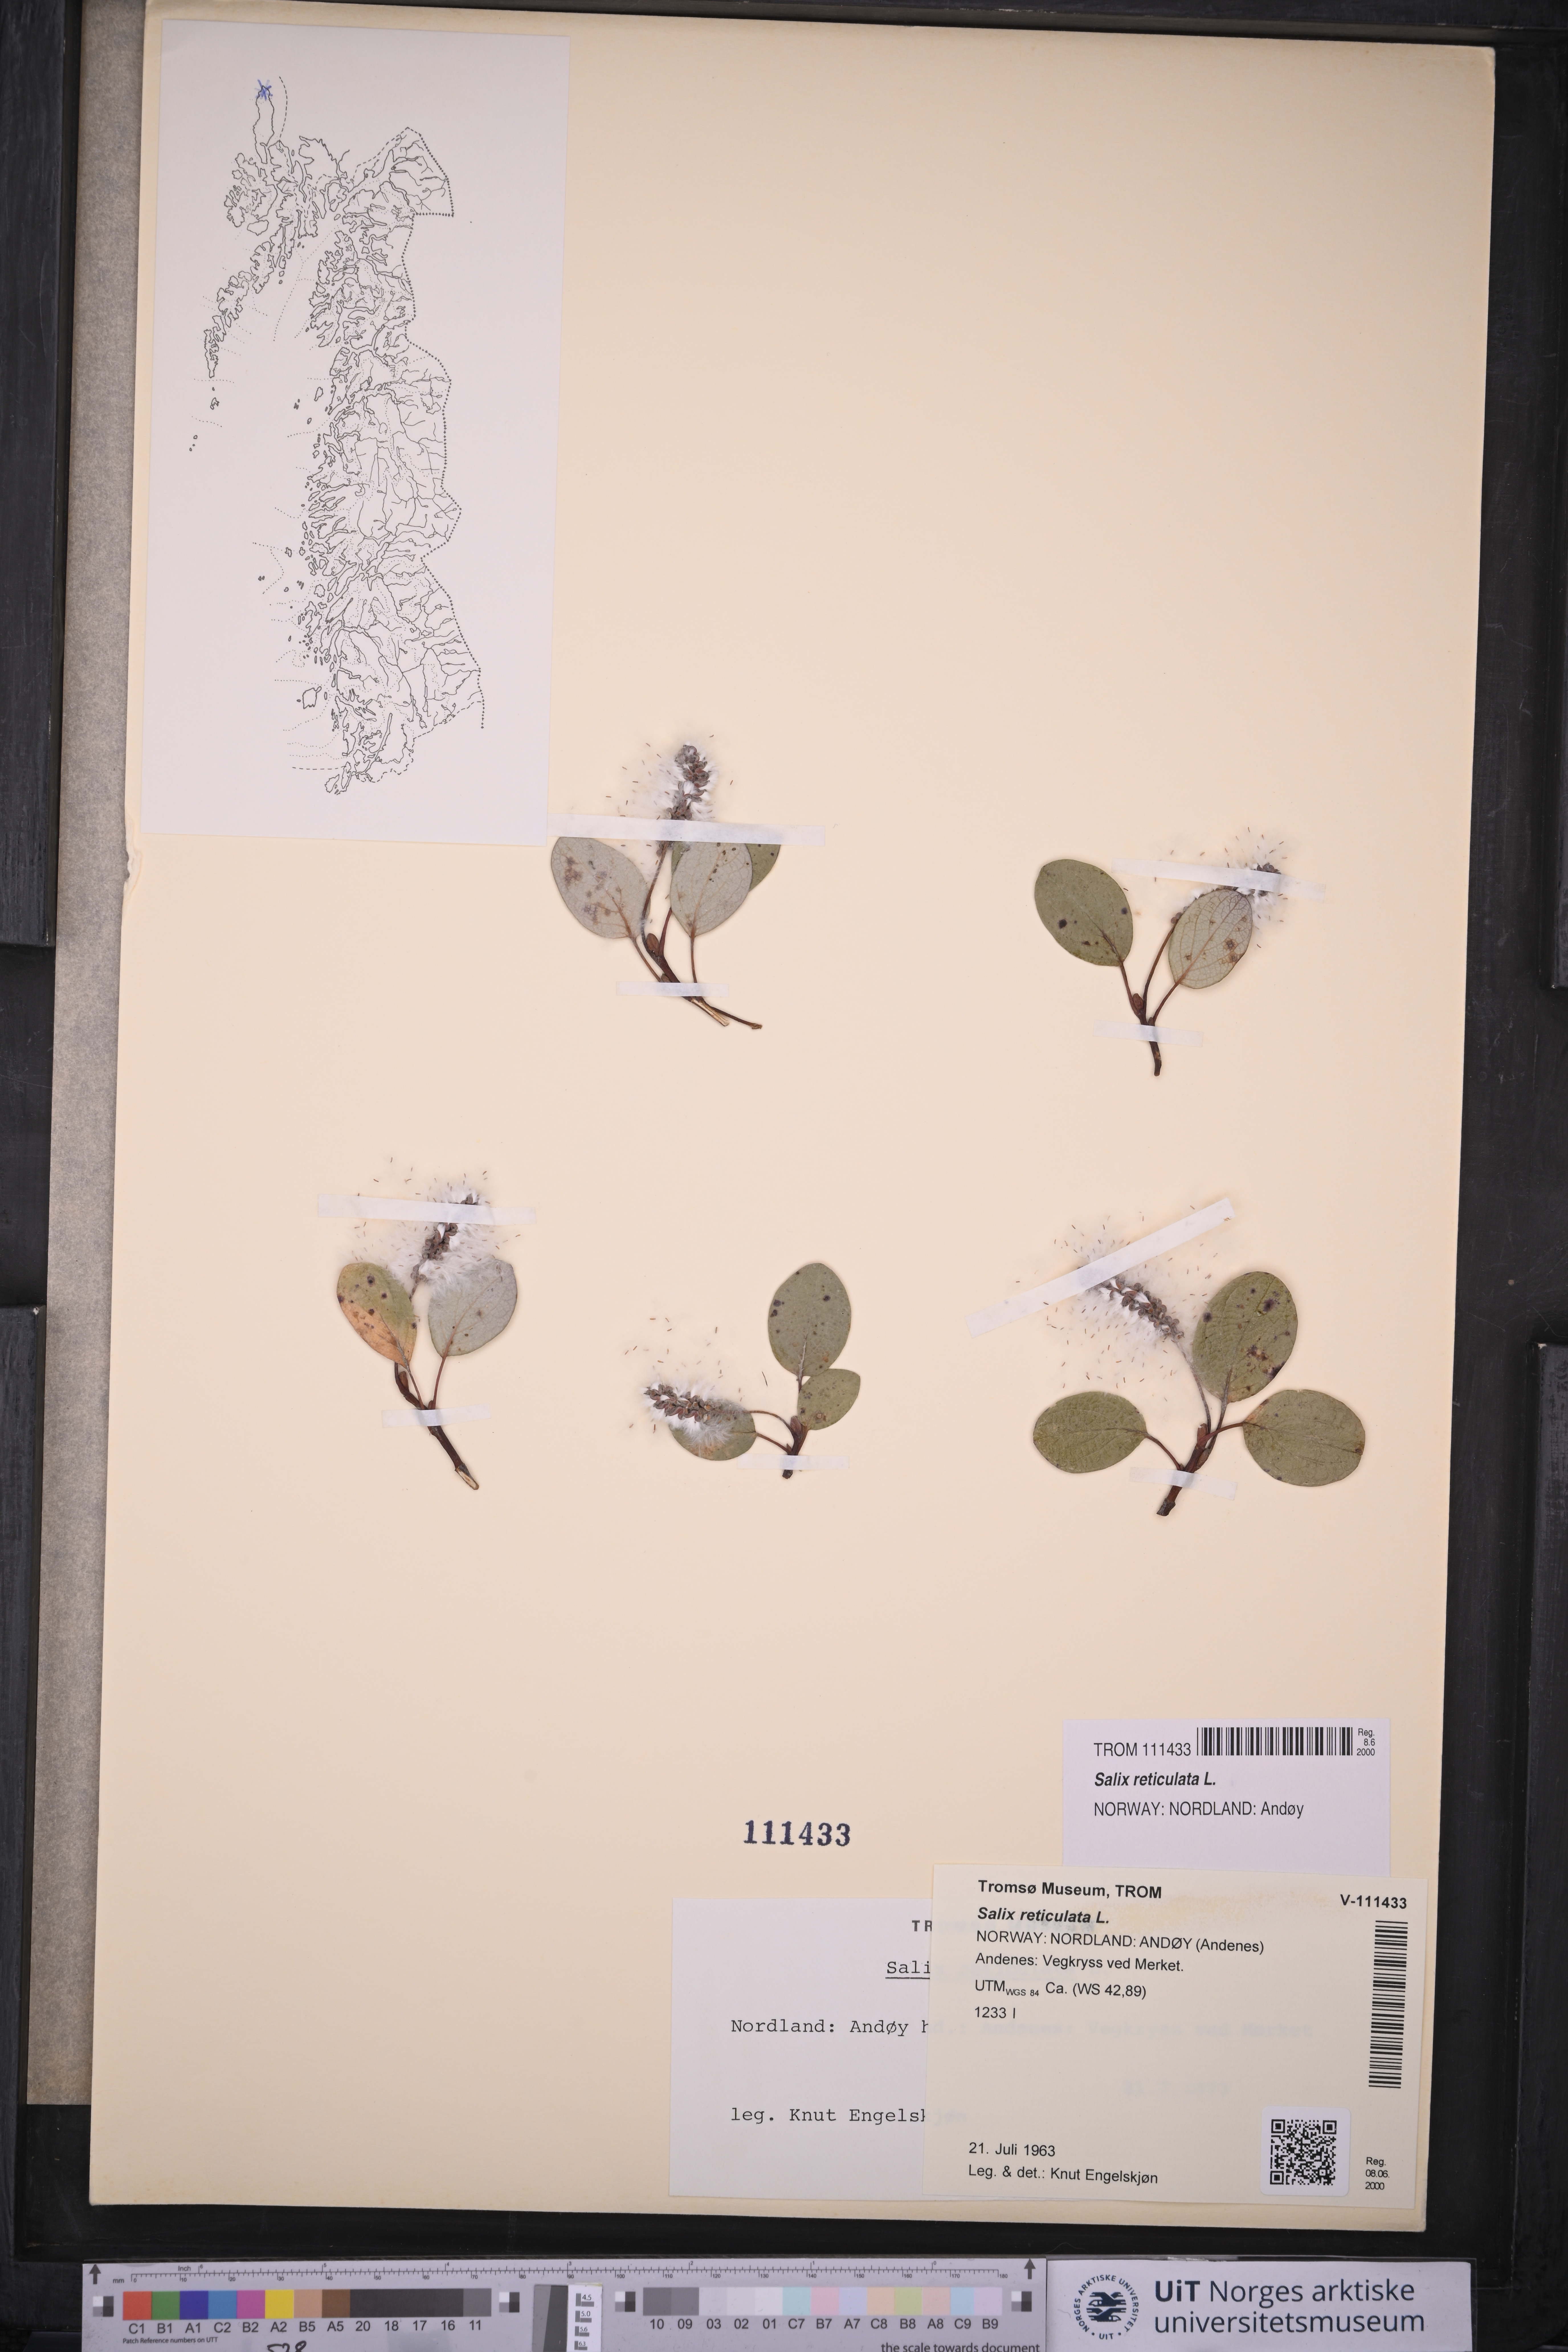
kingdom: Plantae
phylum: Tracheophyta
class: Magnoliopsida
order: Malpighiales
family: Salicaceae
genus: Salix
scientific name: Salix reticulata
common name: Net-leaved willow
